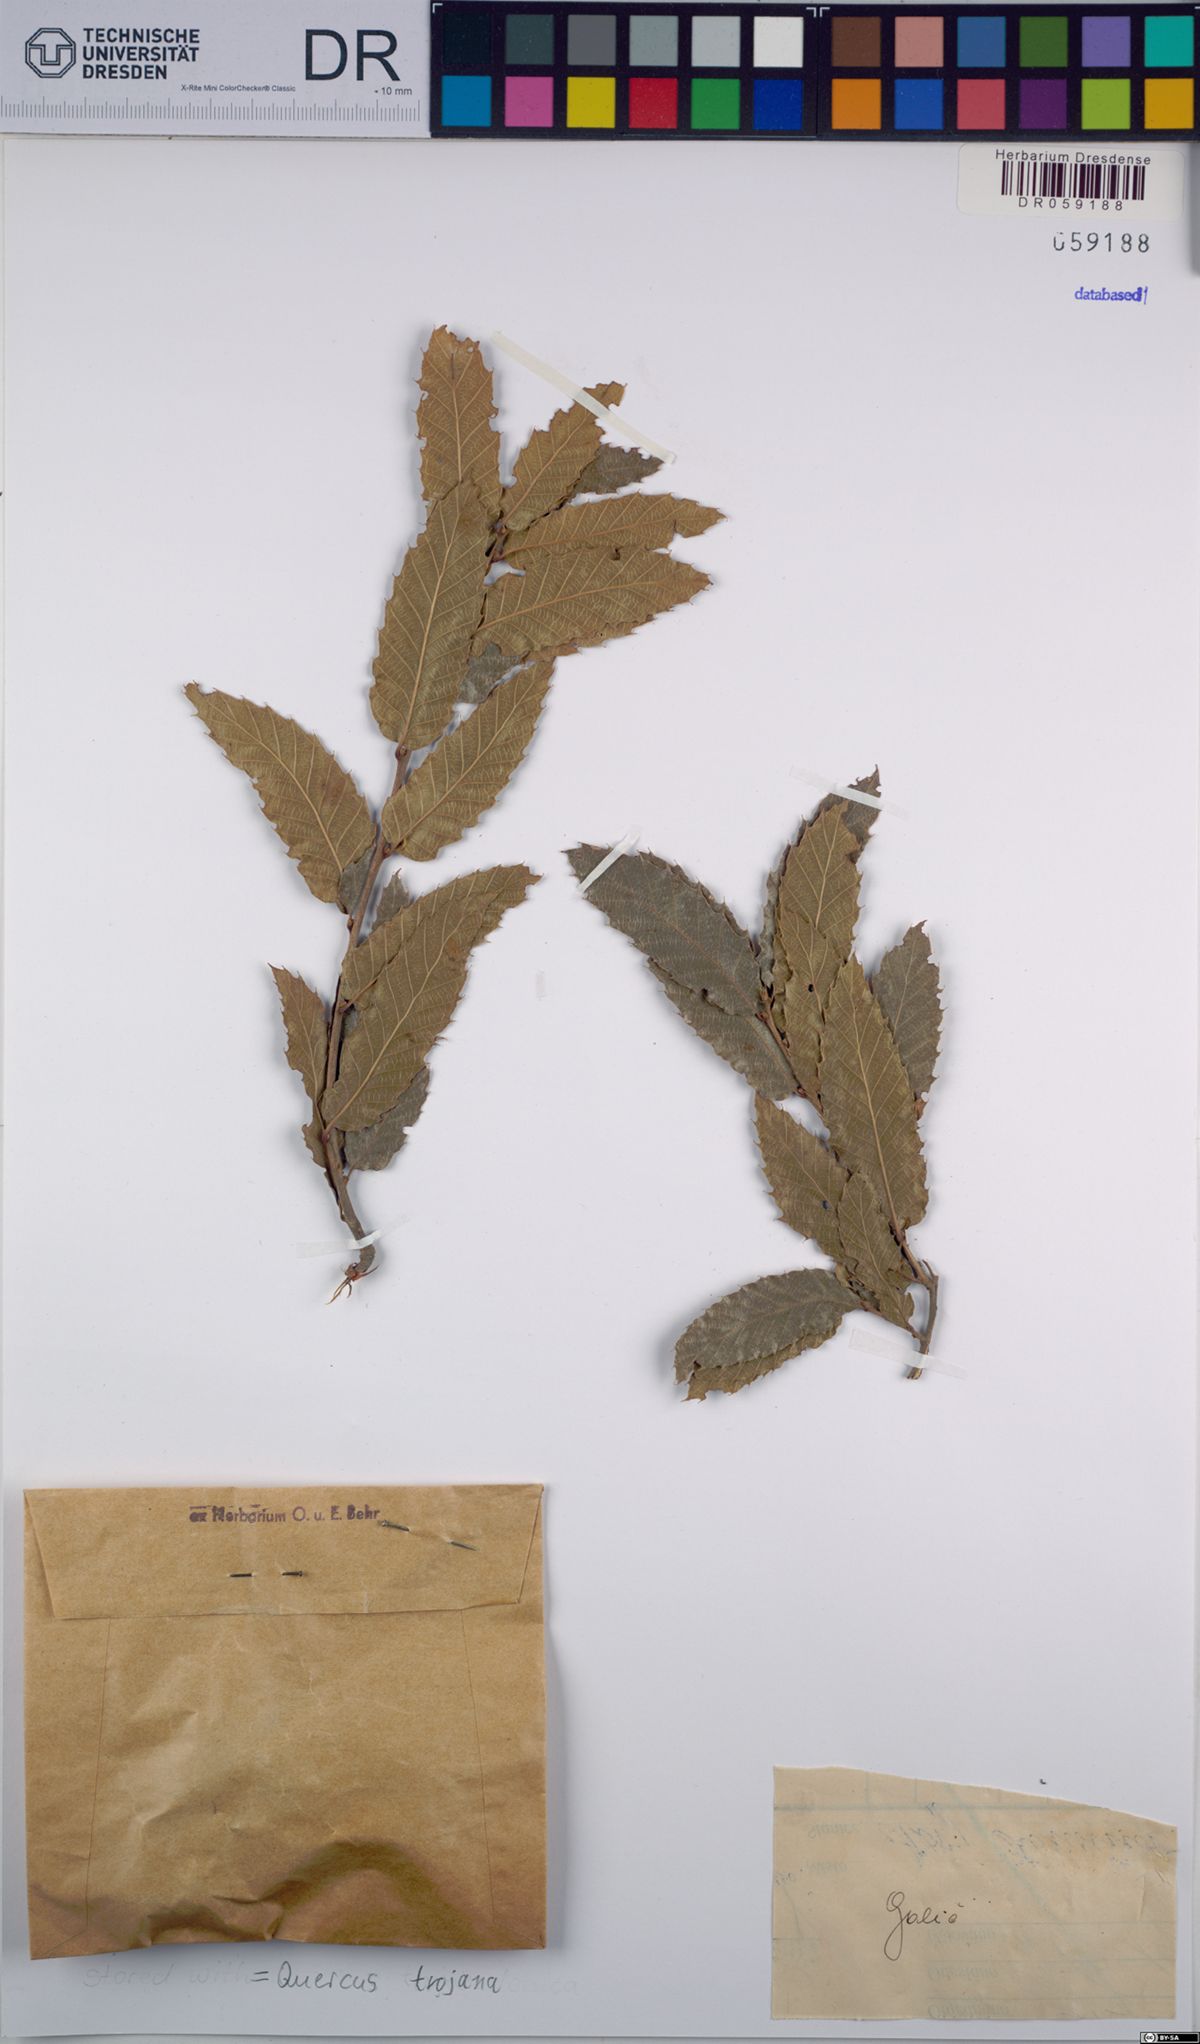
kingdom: Plantae
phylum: Tracheophyta
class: Magnoliopsida
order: Fagales
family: Fagaceae
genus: Quercus
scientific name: Quercus trojana
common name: Macedonian oak
